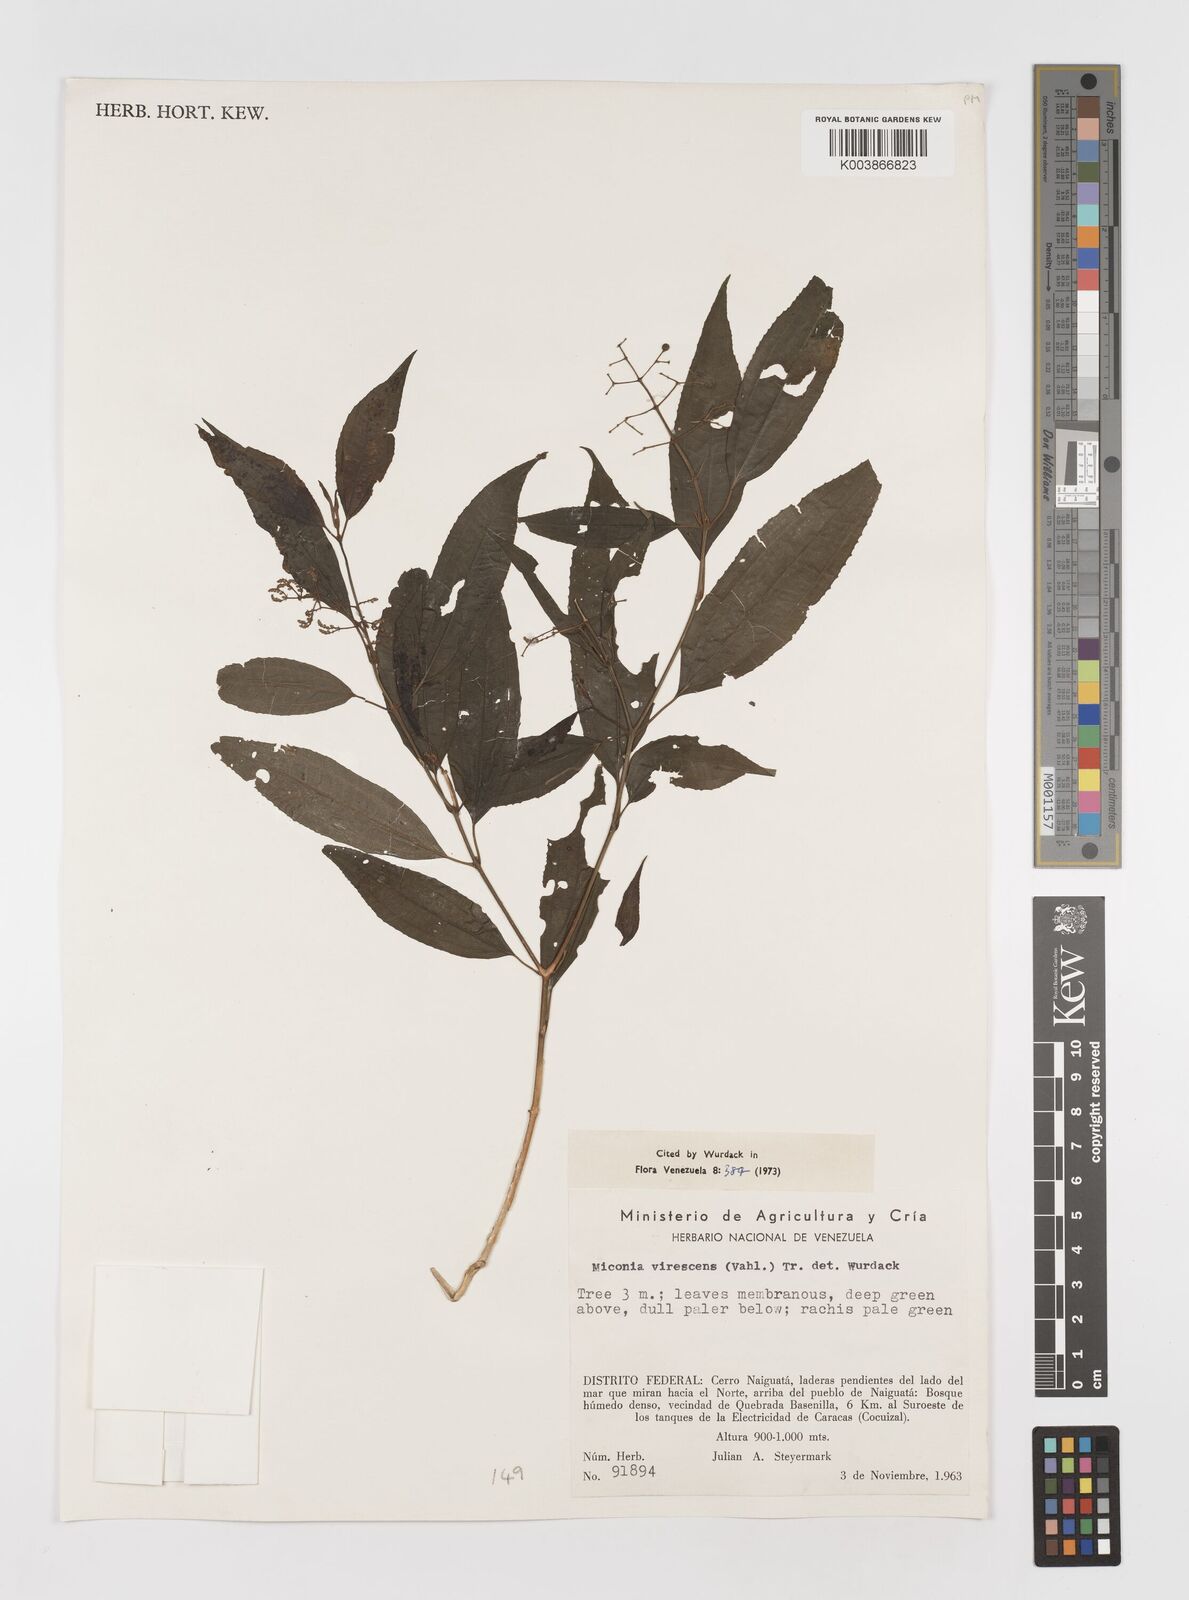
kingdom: Plantae
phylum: Tracheophyta
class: Magnoliopsida
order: Myrtales
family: Melastomataceae
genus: Miconia
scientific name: Miconia virescens
